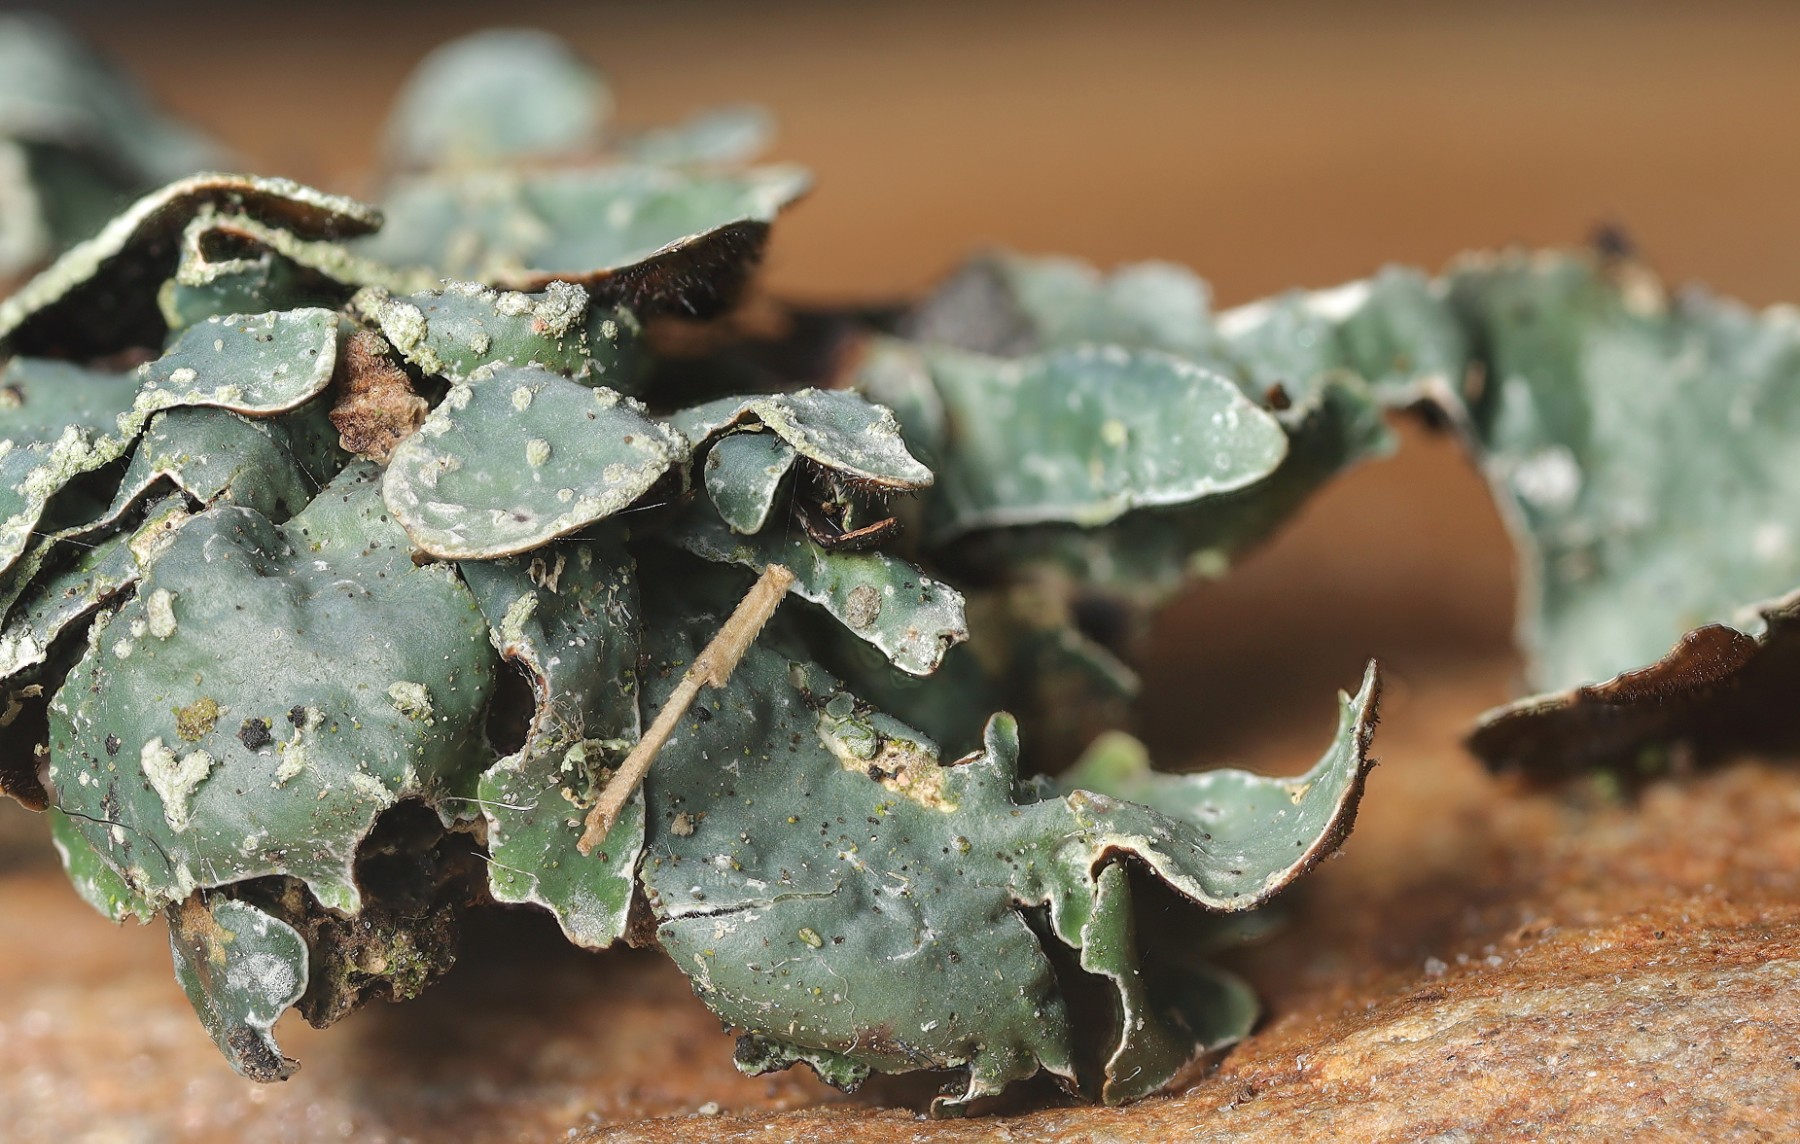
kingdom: Fungi
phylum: Ascomycota
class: Lecanoromycetes
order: Lecanorales
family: Parmeliaceae
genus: Parmelia
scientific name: Parmelia sulcata
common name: rynket skållav
